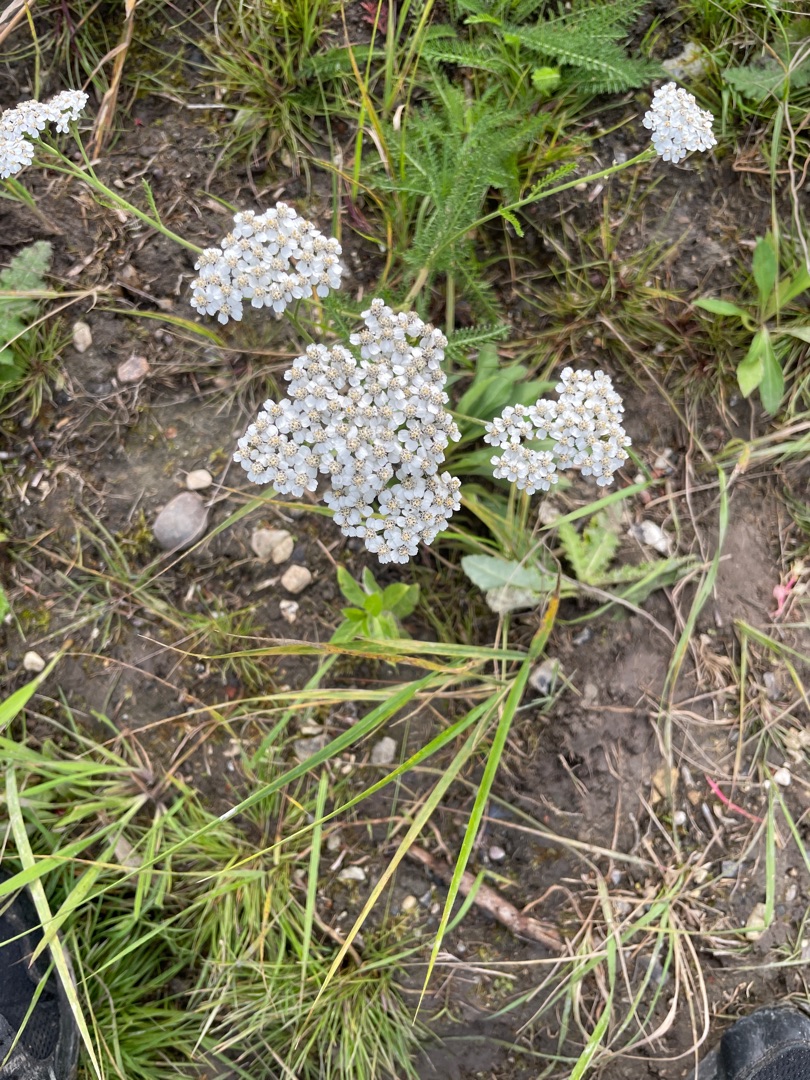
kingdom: Plantae
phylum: Tracheophyta
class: Magnoliopsida
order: Asterales
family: Asteraceae
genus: Achillea
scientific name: Achillea millefolium
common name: Almindelig røllike
